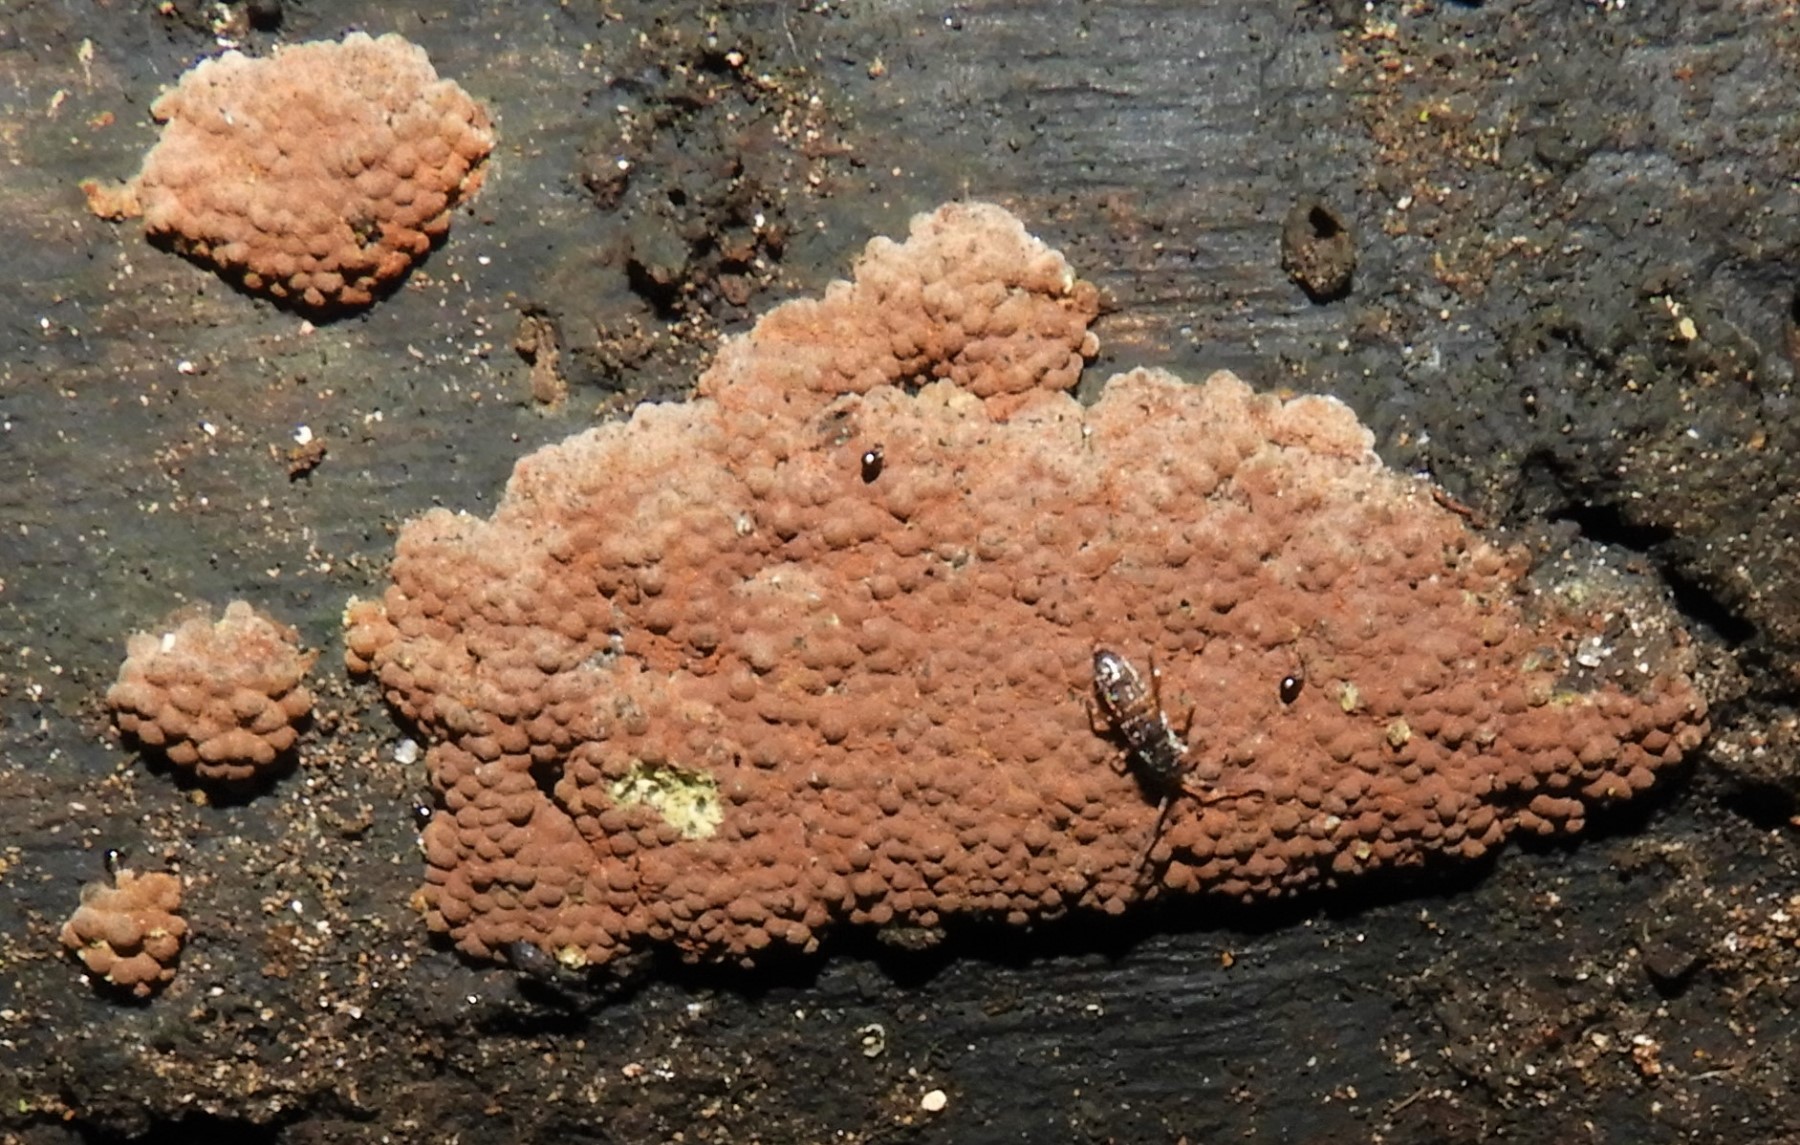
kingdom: Fungi
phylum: Ascomycota
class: Sordariomycetes
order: Xylariales
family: Hypoxylaceae
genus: Hypoxylon
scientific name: Hypoxylon rubiginosum
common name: rustfarvet kulbær
